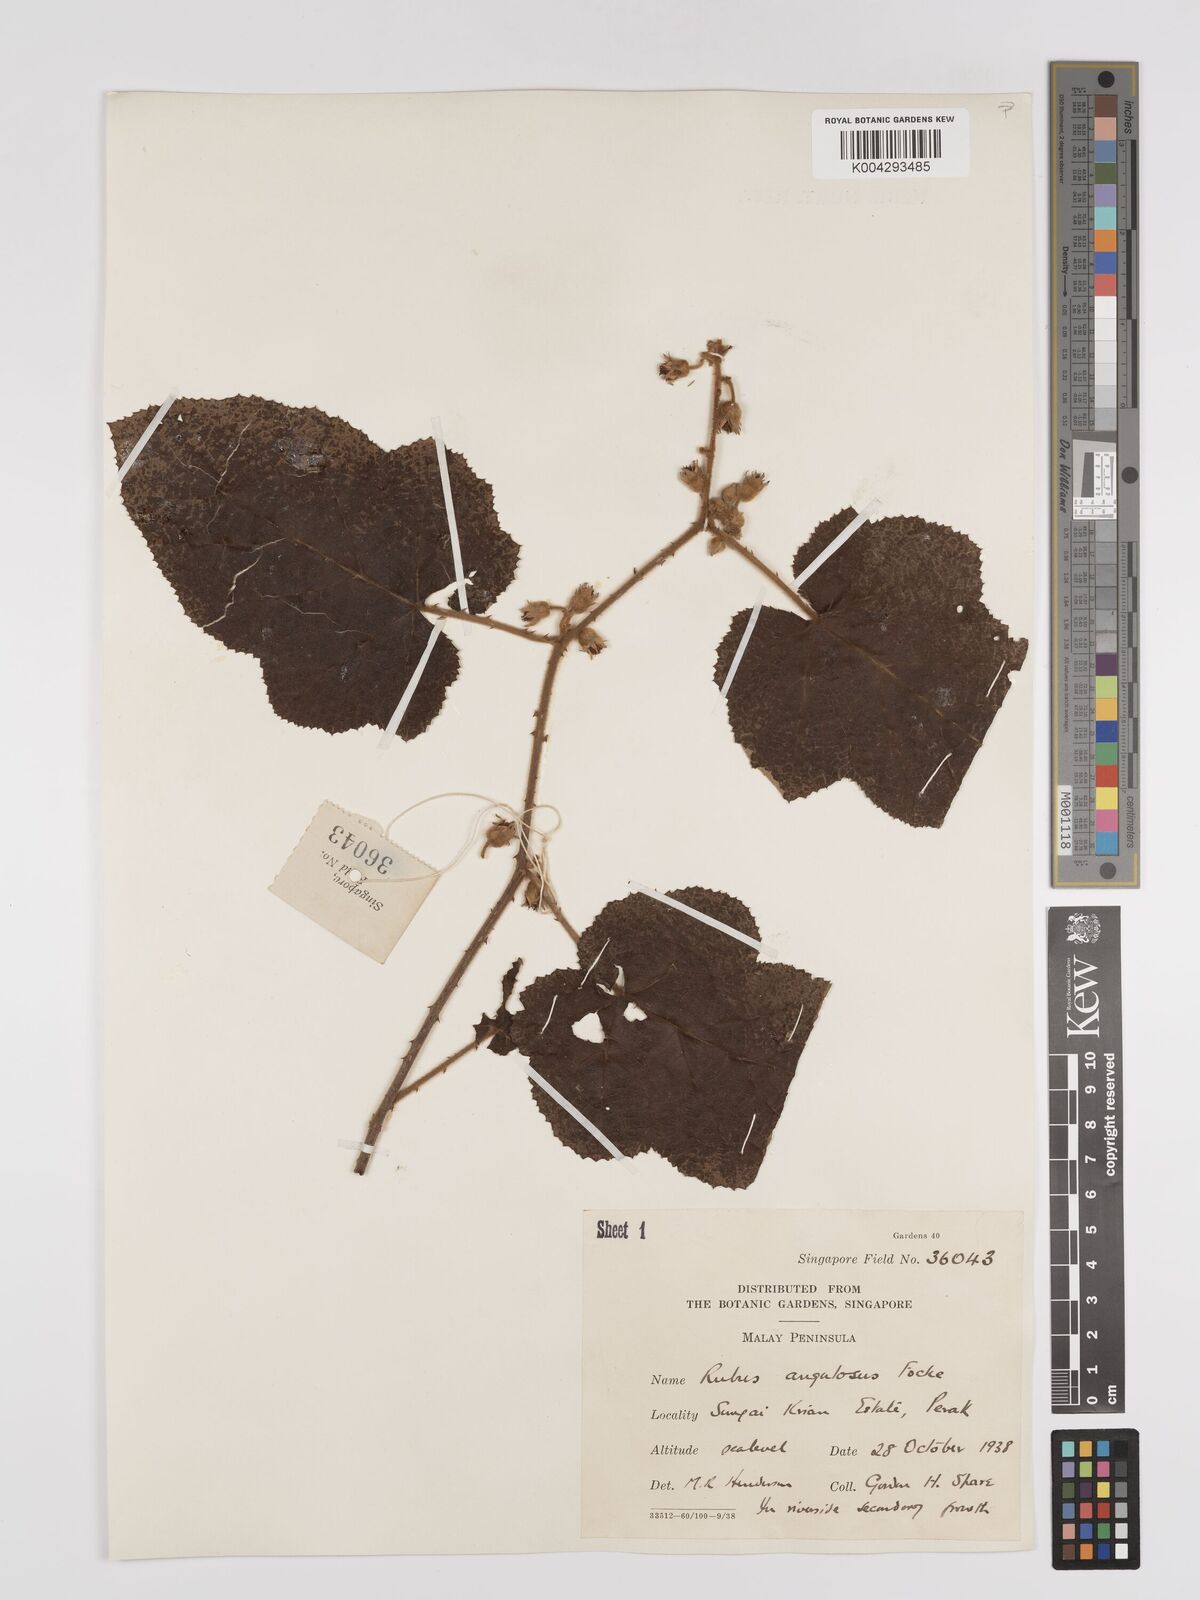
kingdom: Plantae
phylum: Tracheophyta
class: Magnoliopsida
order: Rosales
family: Rosaceae
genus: Rubus
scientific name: Rubus moluccanus
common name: Wild raspberry
